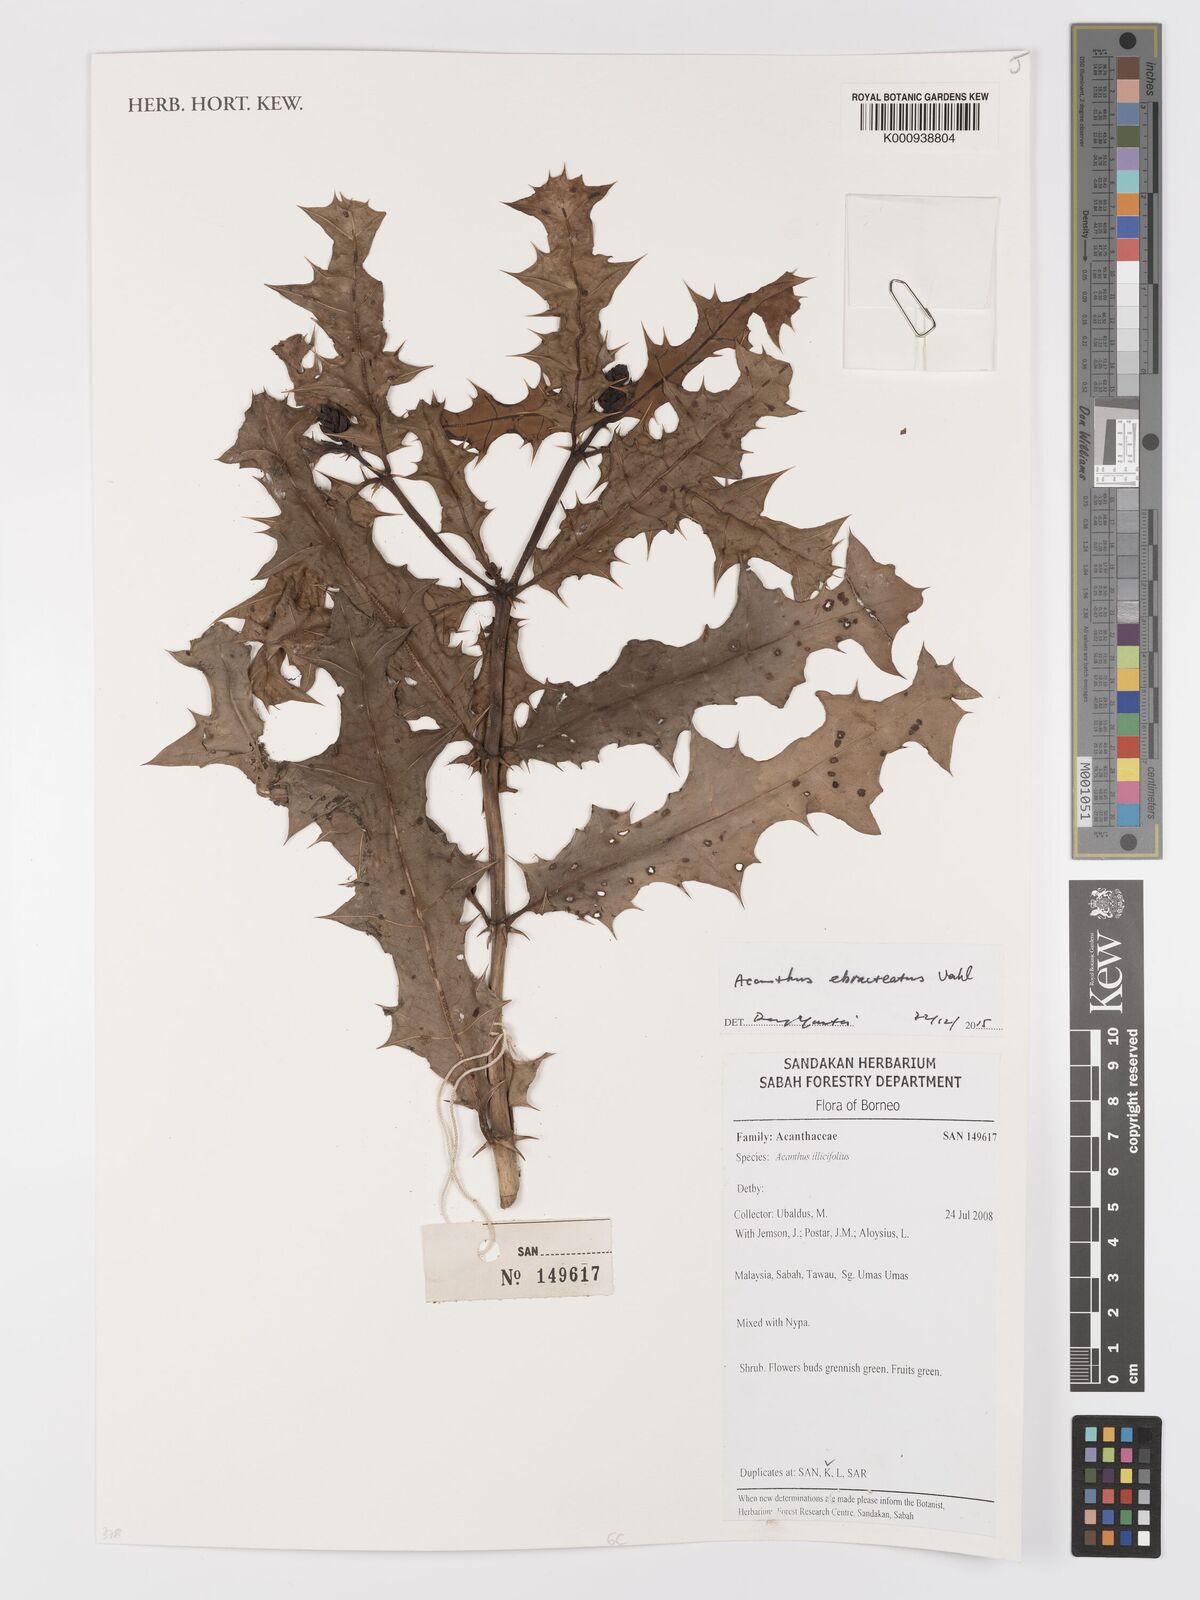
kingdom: Plantae
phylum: Tracheophyta
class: Magnoliopsida
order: Lamiales
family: Acanthaceae
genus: Acanthus
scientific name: Acanthus
